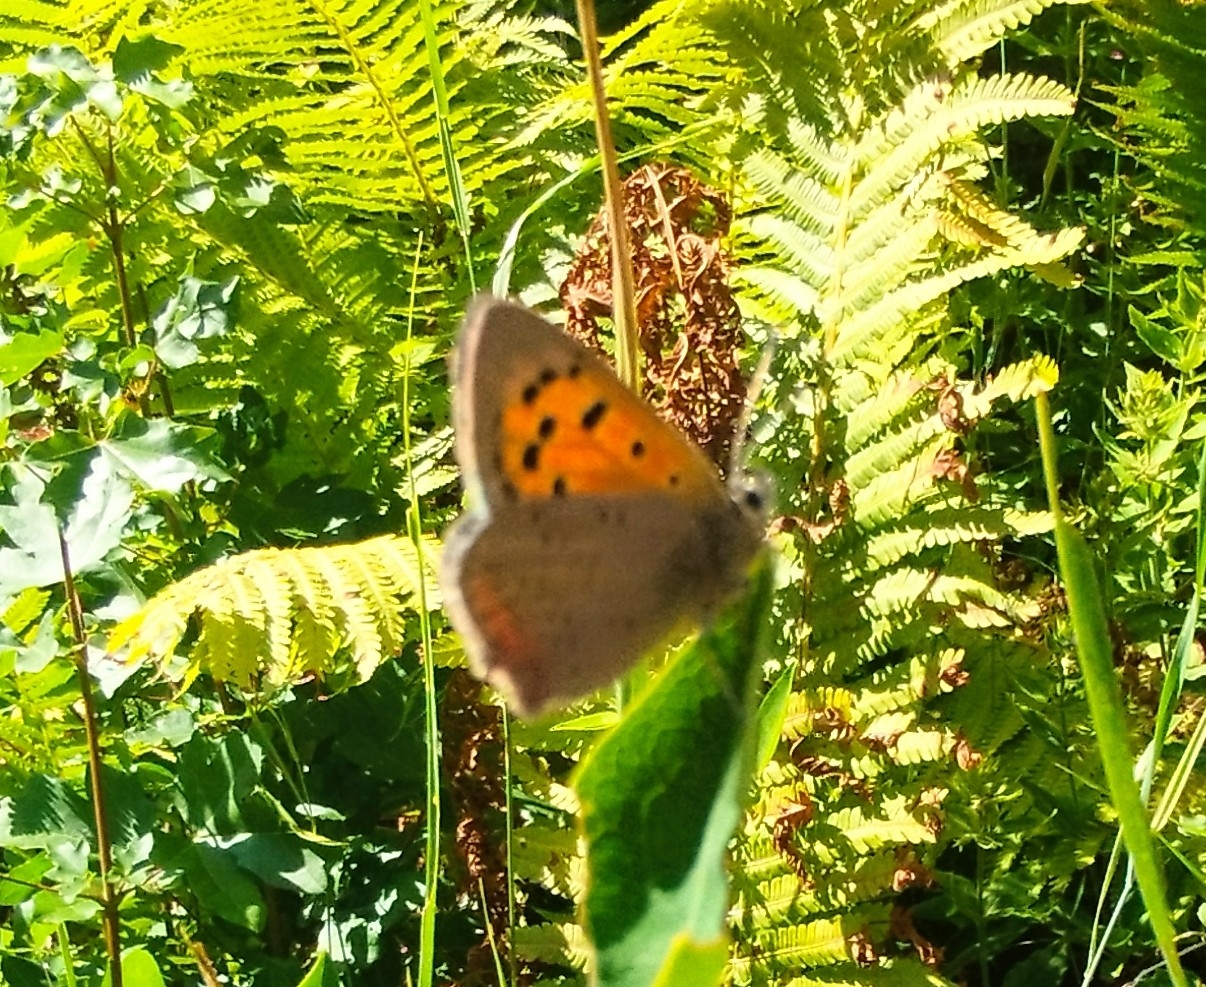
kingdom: Animalia
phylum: Arthropoda
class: Insecta
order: Lepidoptera
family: Lycaenidae
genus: Lycaena
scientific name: Lycaena phlaeas
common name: Lille ildfugl
